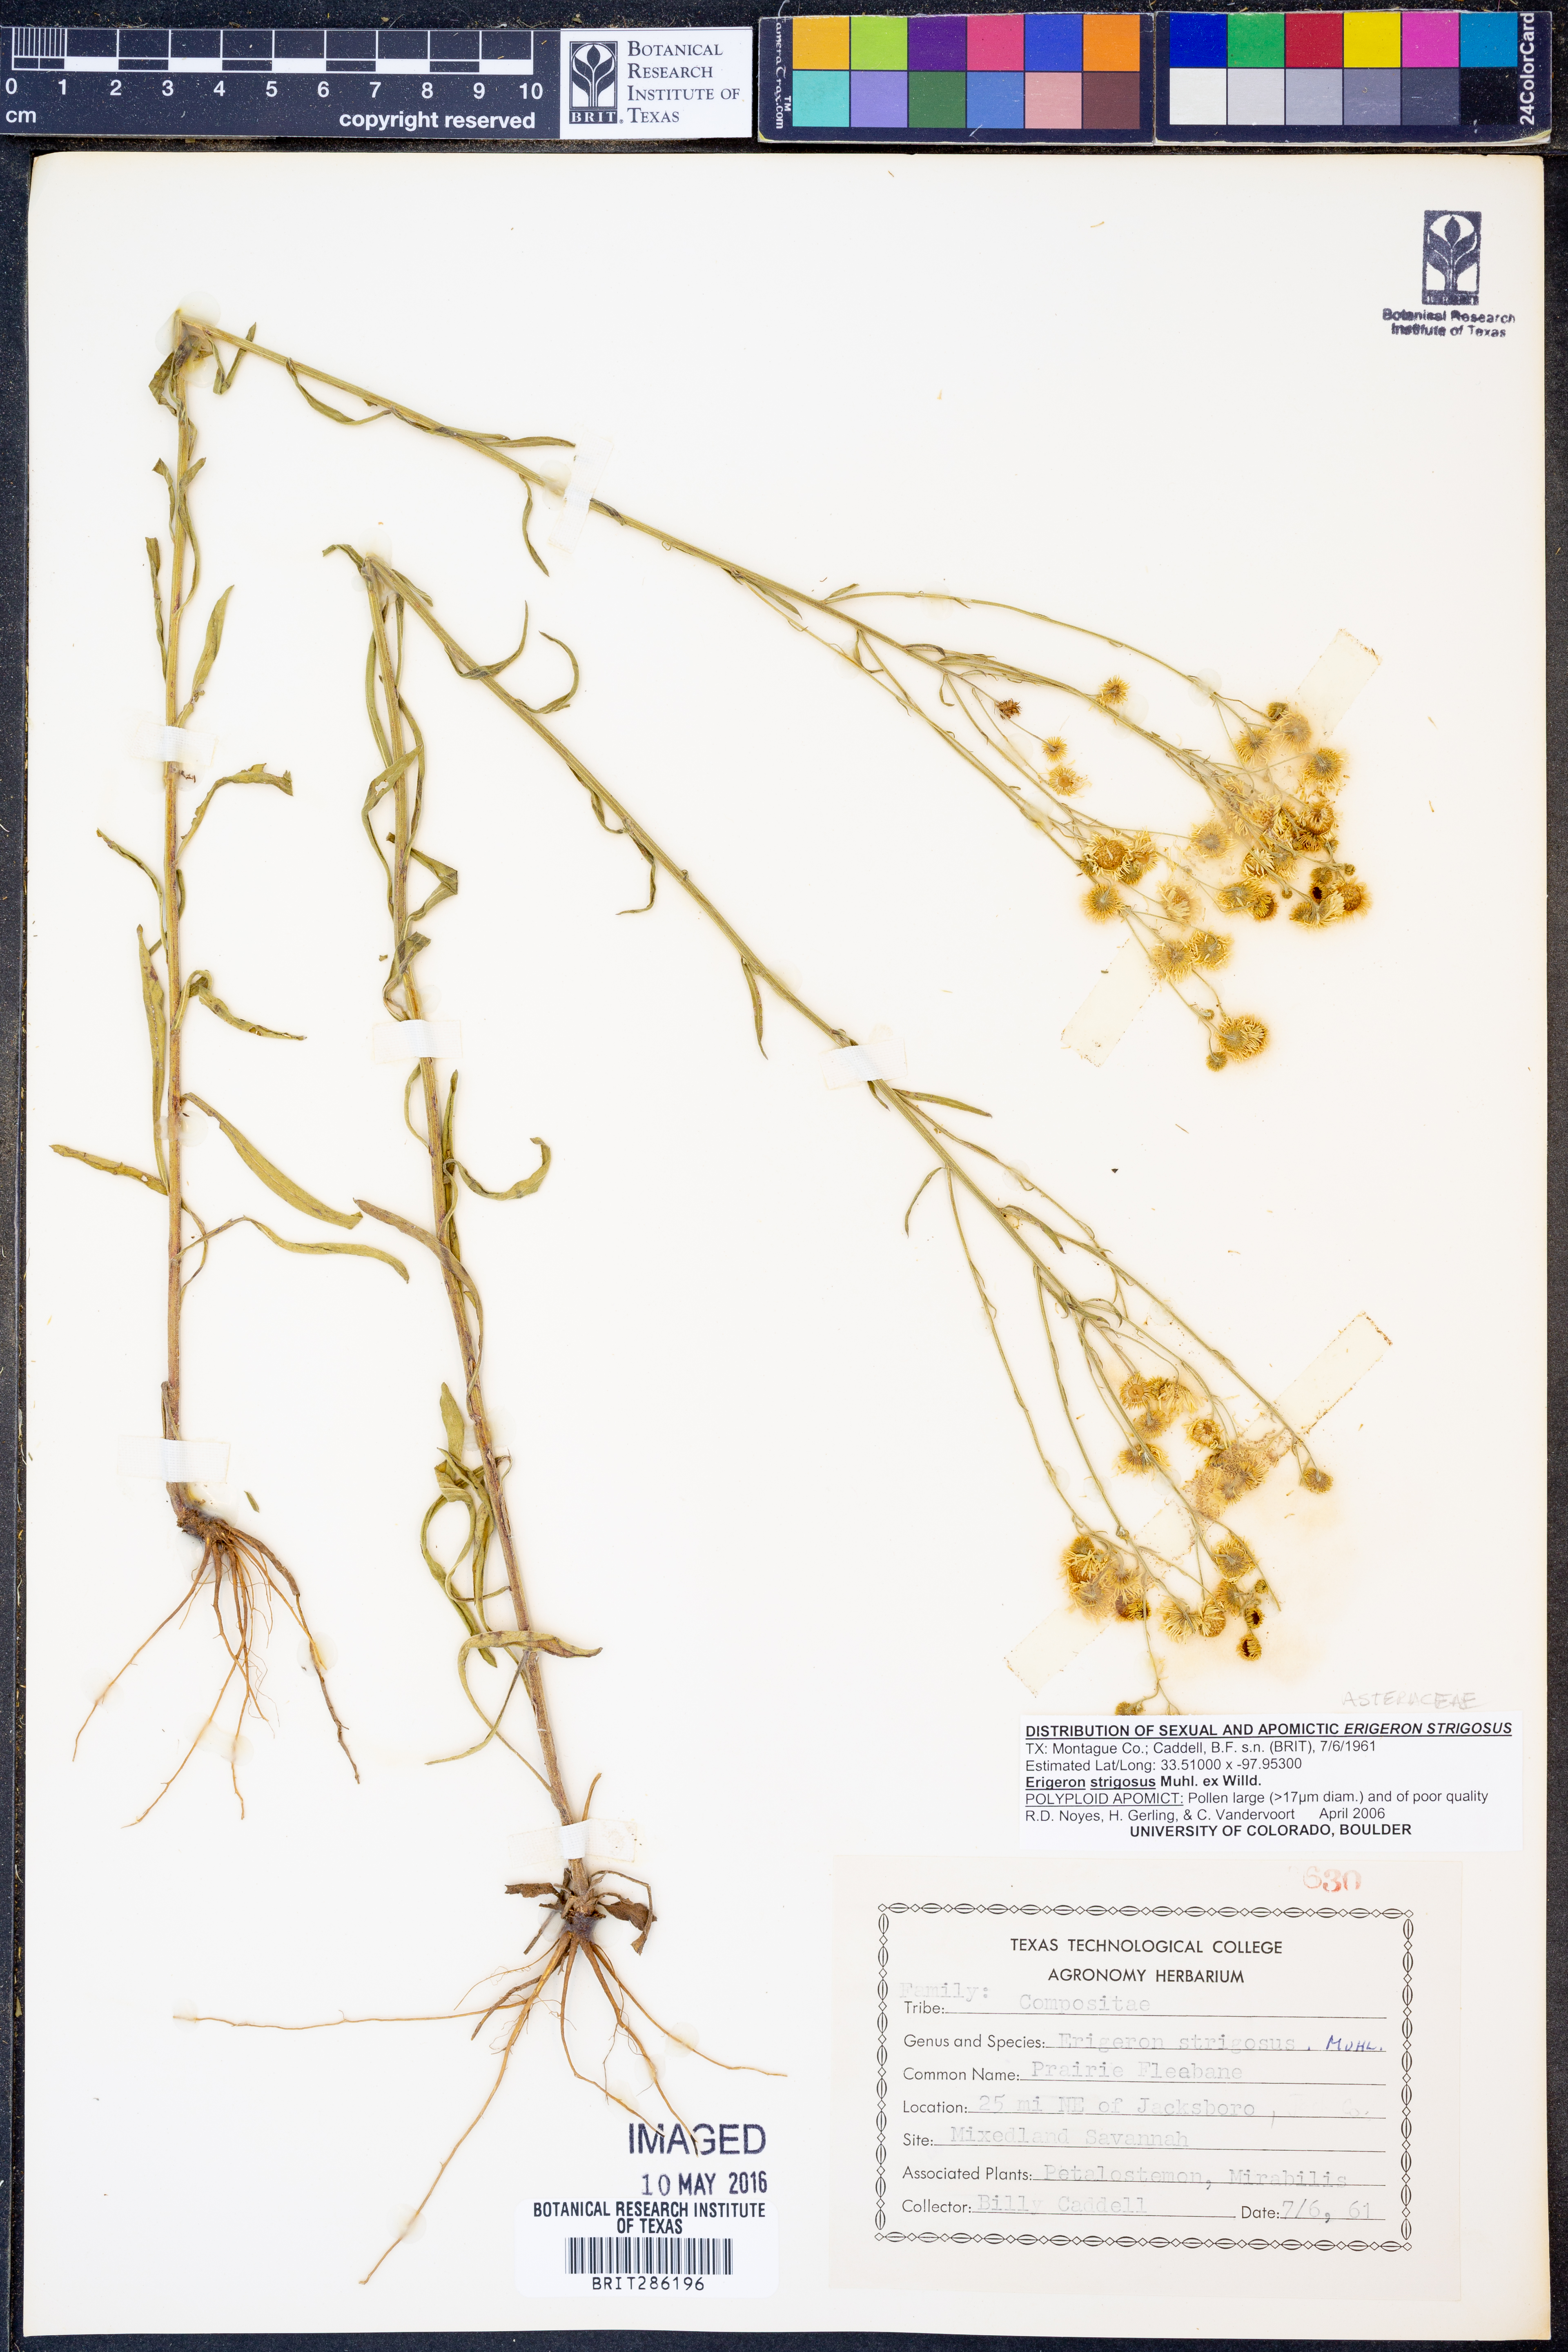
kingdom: Plantae
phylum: Tracheophyta
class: Magnoliopsida
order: Asterales
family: Asteraceae
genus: Erigeron
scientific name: Erigeron strigosus
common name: Common eastern fleabane
